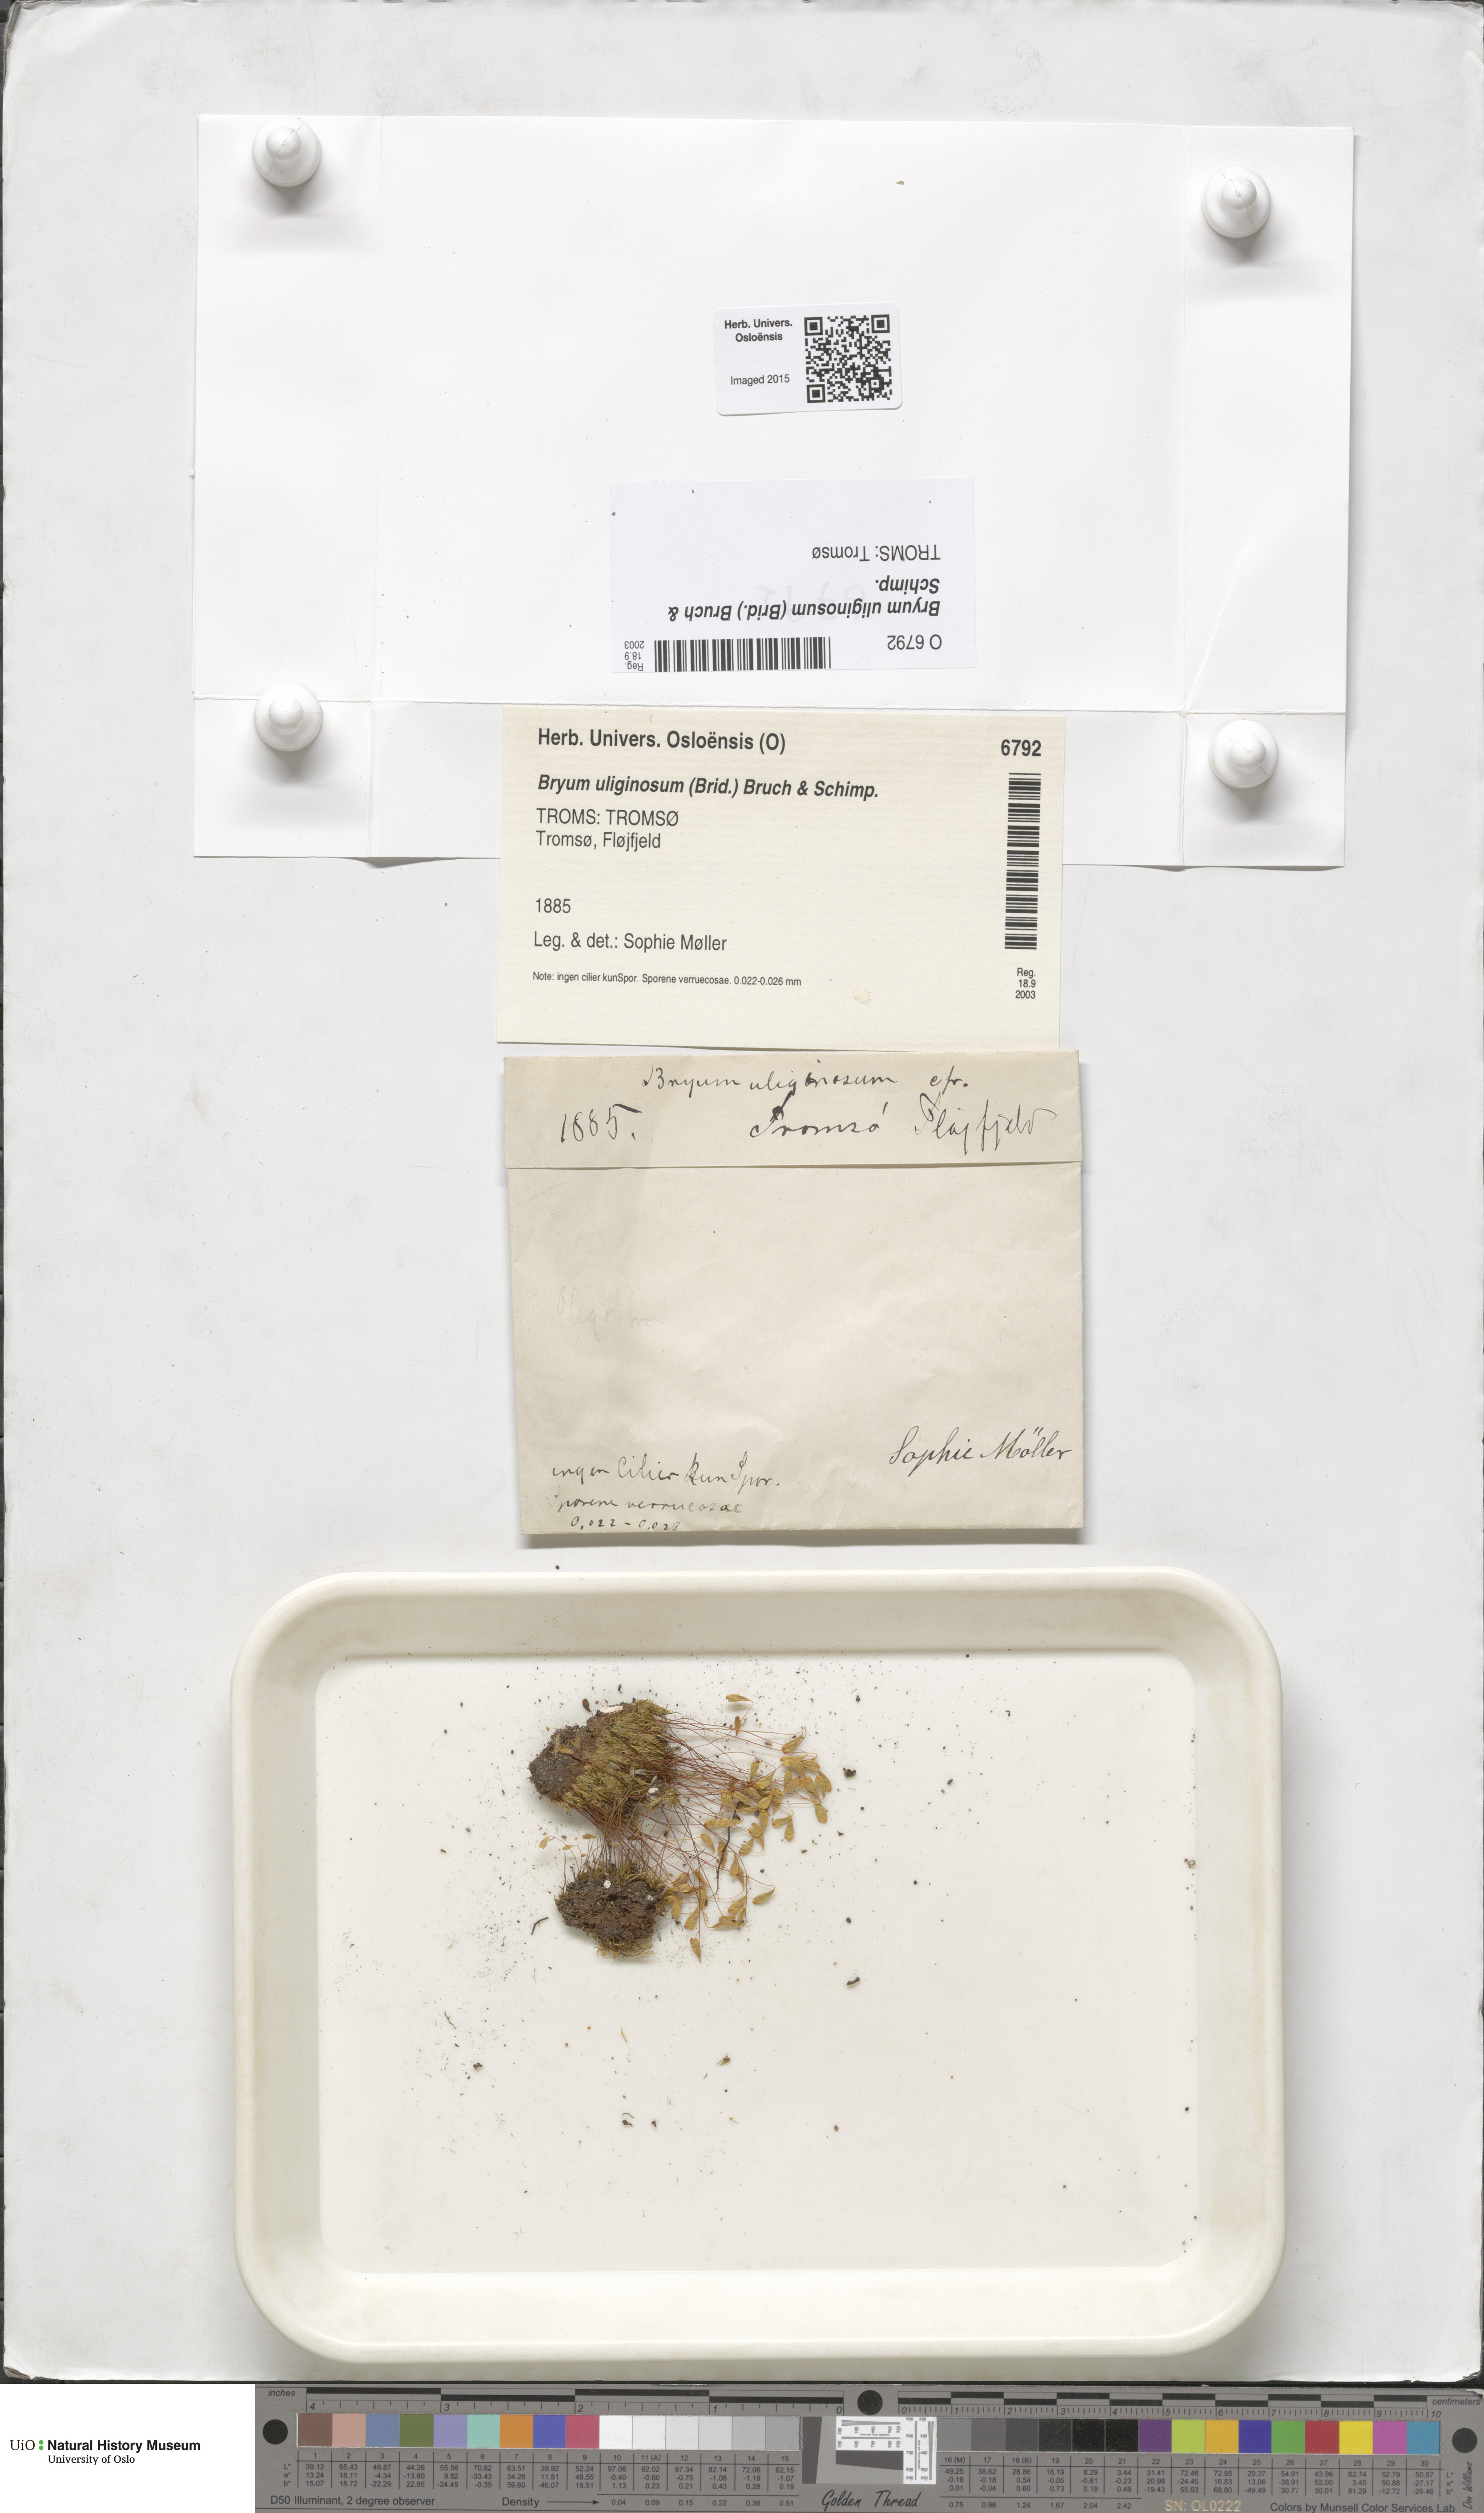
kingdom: Plantae
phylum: Bryophyta
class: Bryopsida
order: Bryales
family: Bryaceae
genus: Ptychostomum
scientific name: Ptychostomum cernuum
